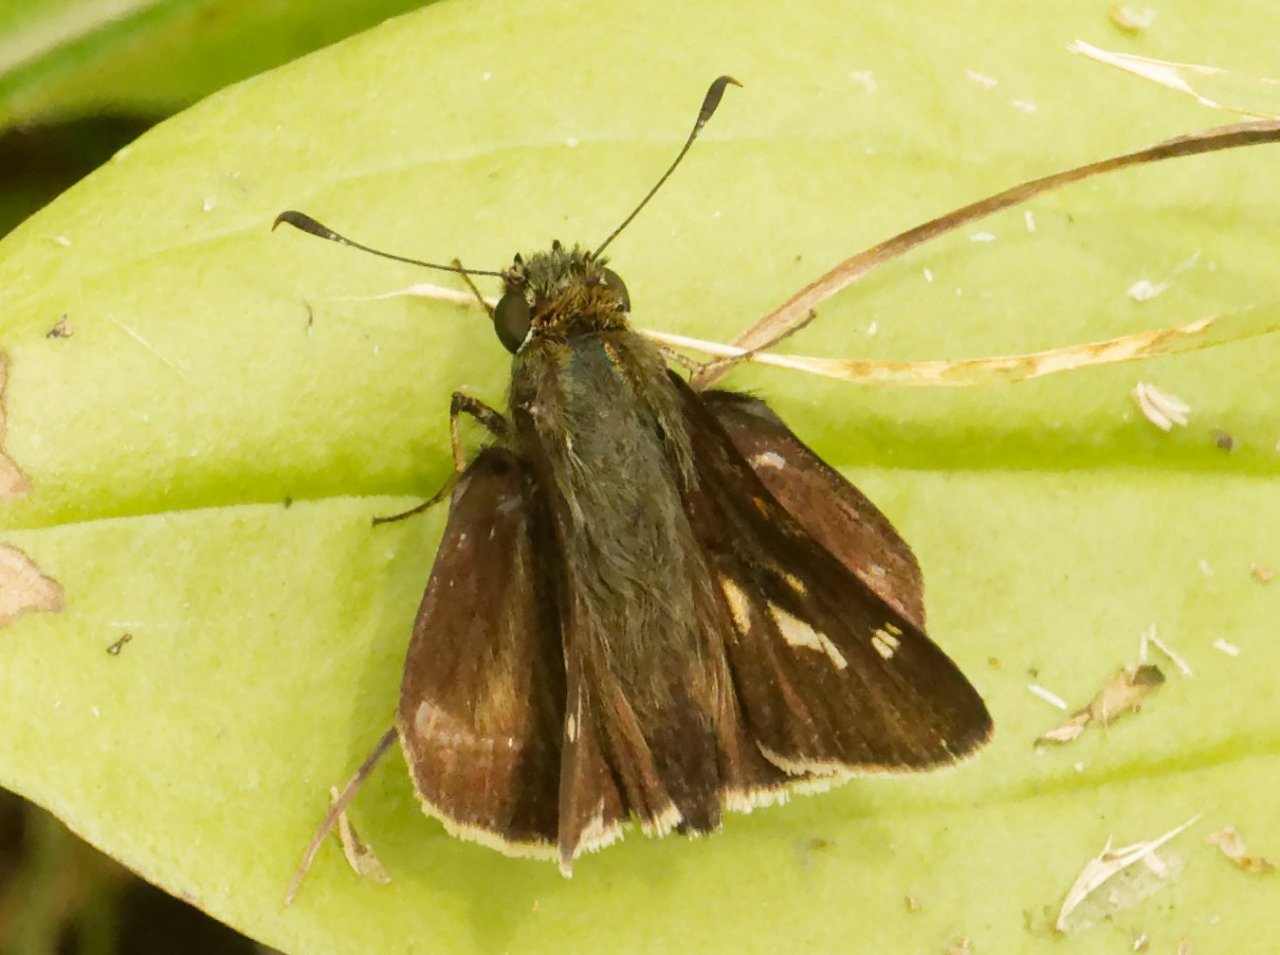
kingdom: Animalia
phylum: Arthropoda
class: Insecta
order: Lepidoptera
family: Hesperiidae
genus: Vernia
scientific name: Vernia verna
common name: Little Glassywing
